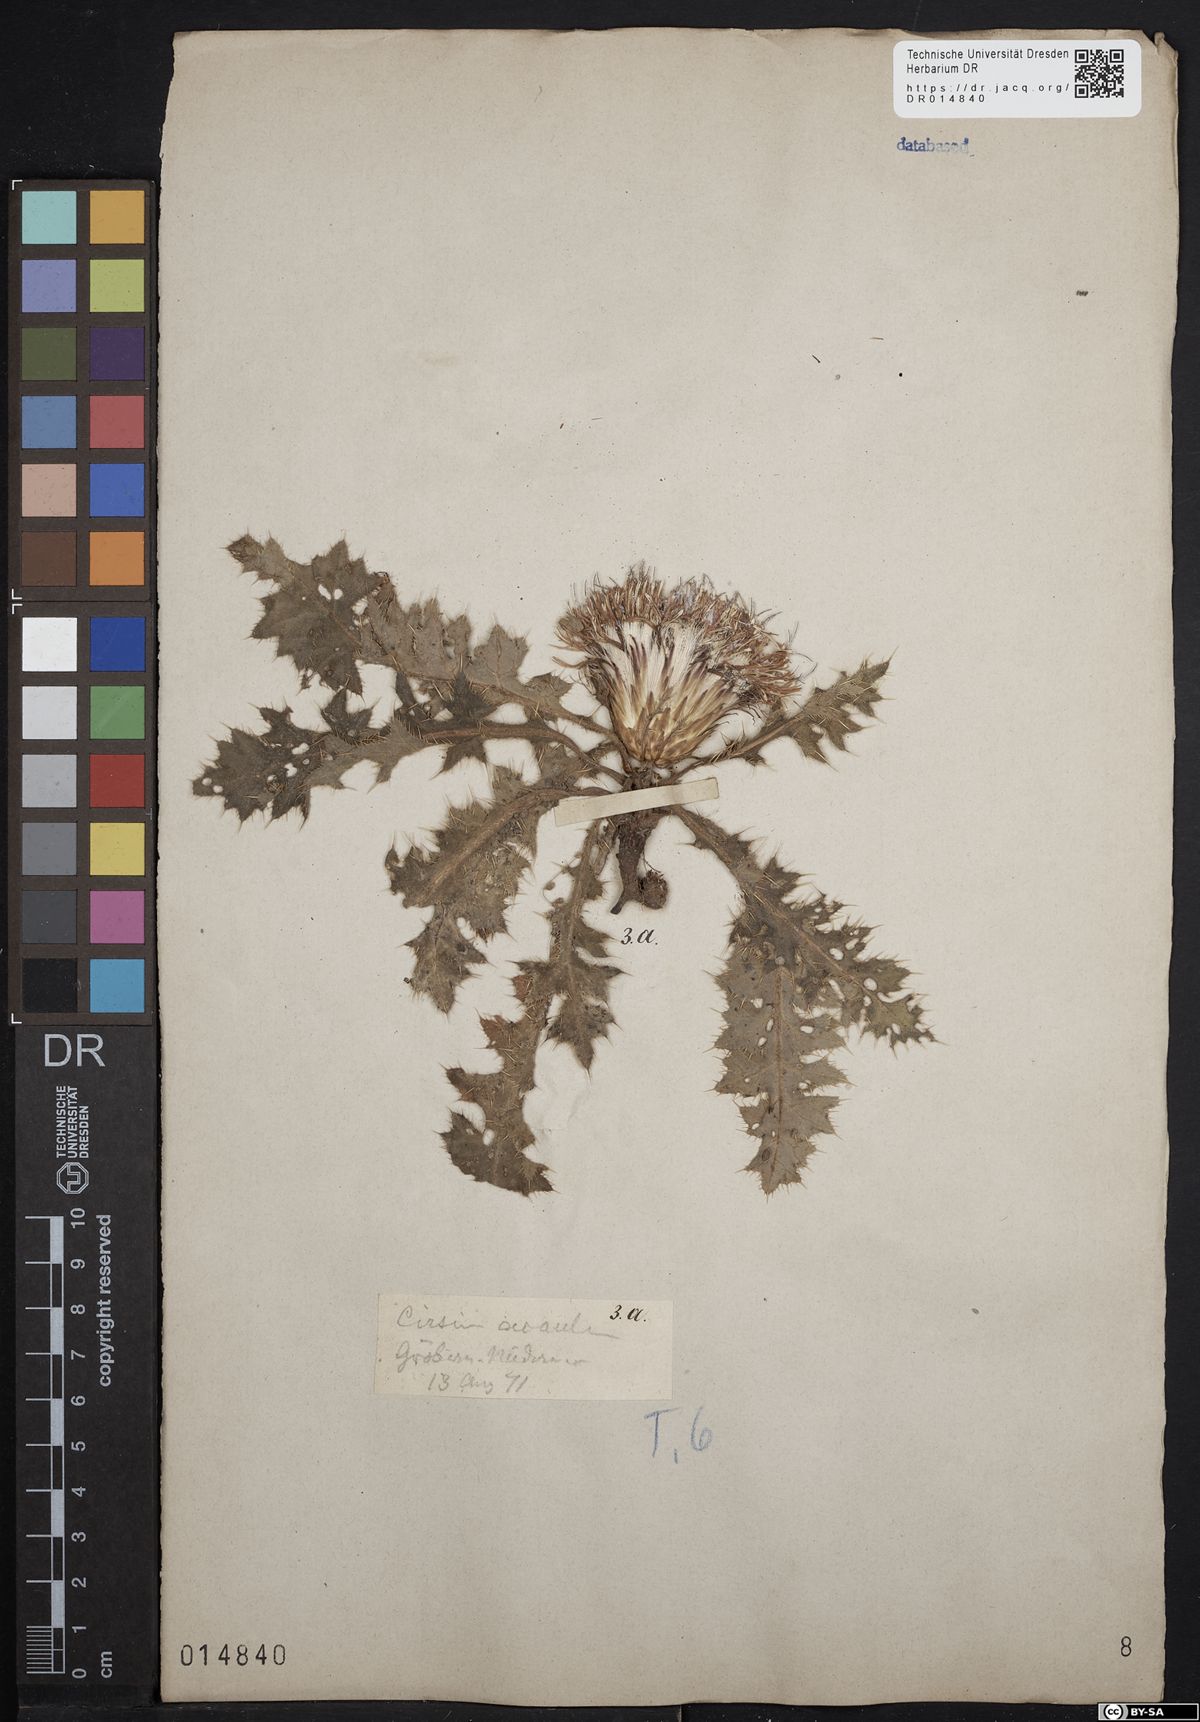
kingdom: Plantae
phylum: Tracheophyta
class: Magnoliopsida
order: Asterales
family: Asteraceae
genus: Cirsium
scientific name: Cirsium acaule
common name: Dwarf thistle
